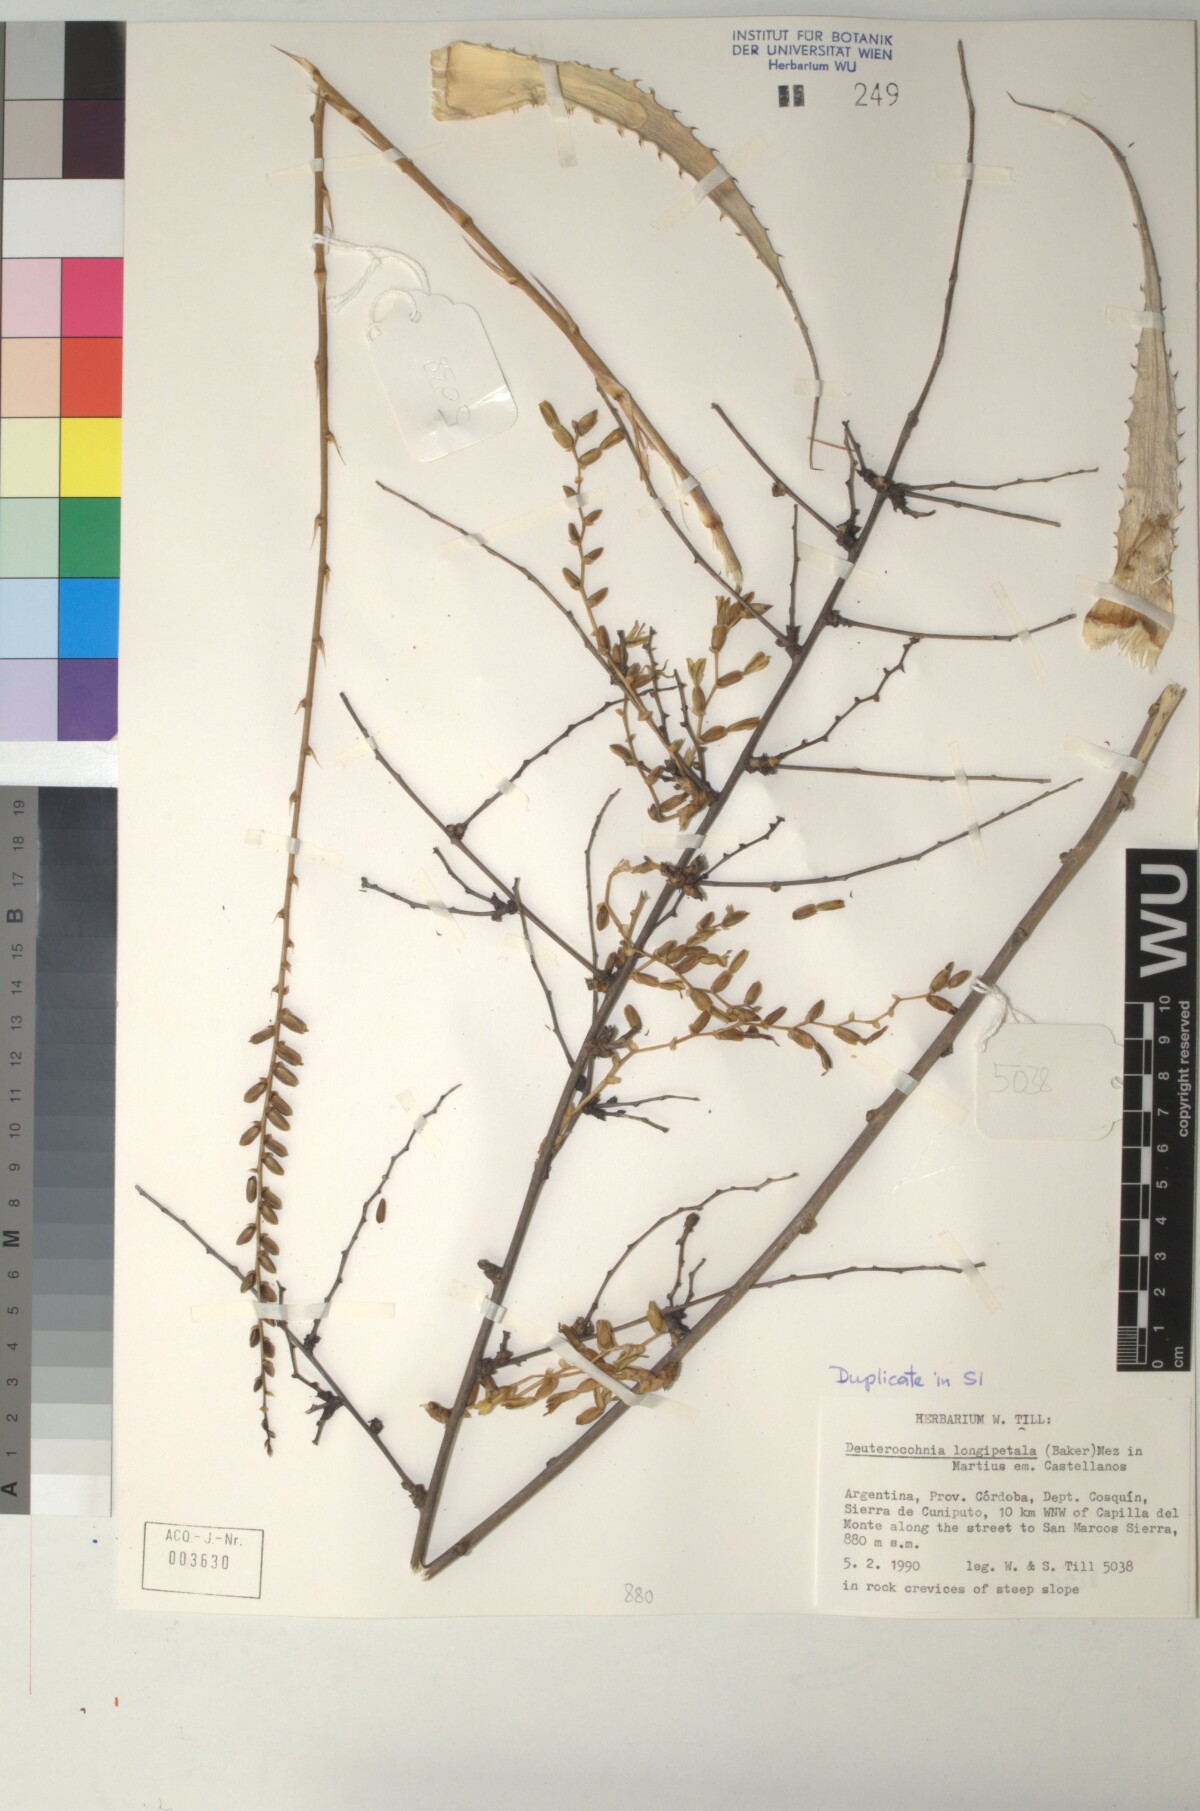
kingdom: Plantae
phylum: Tracheophyta
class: Liliopsida
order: Poales
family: Bromeliaceae
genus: Deuterocohnia
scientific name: Deuterocohnia longipetala
